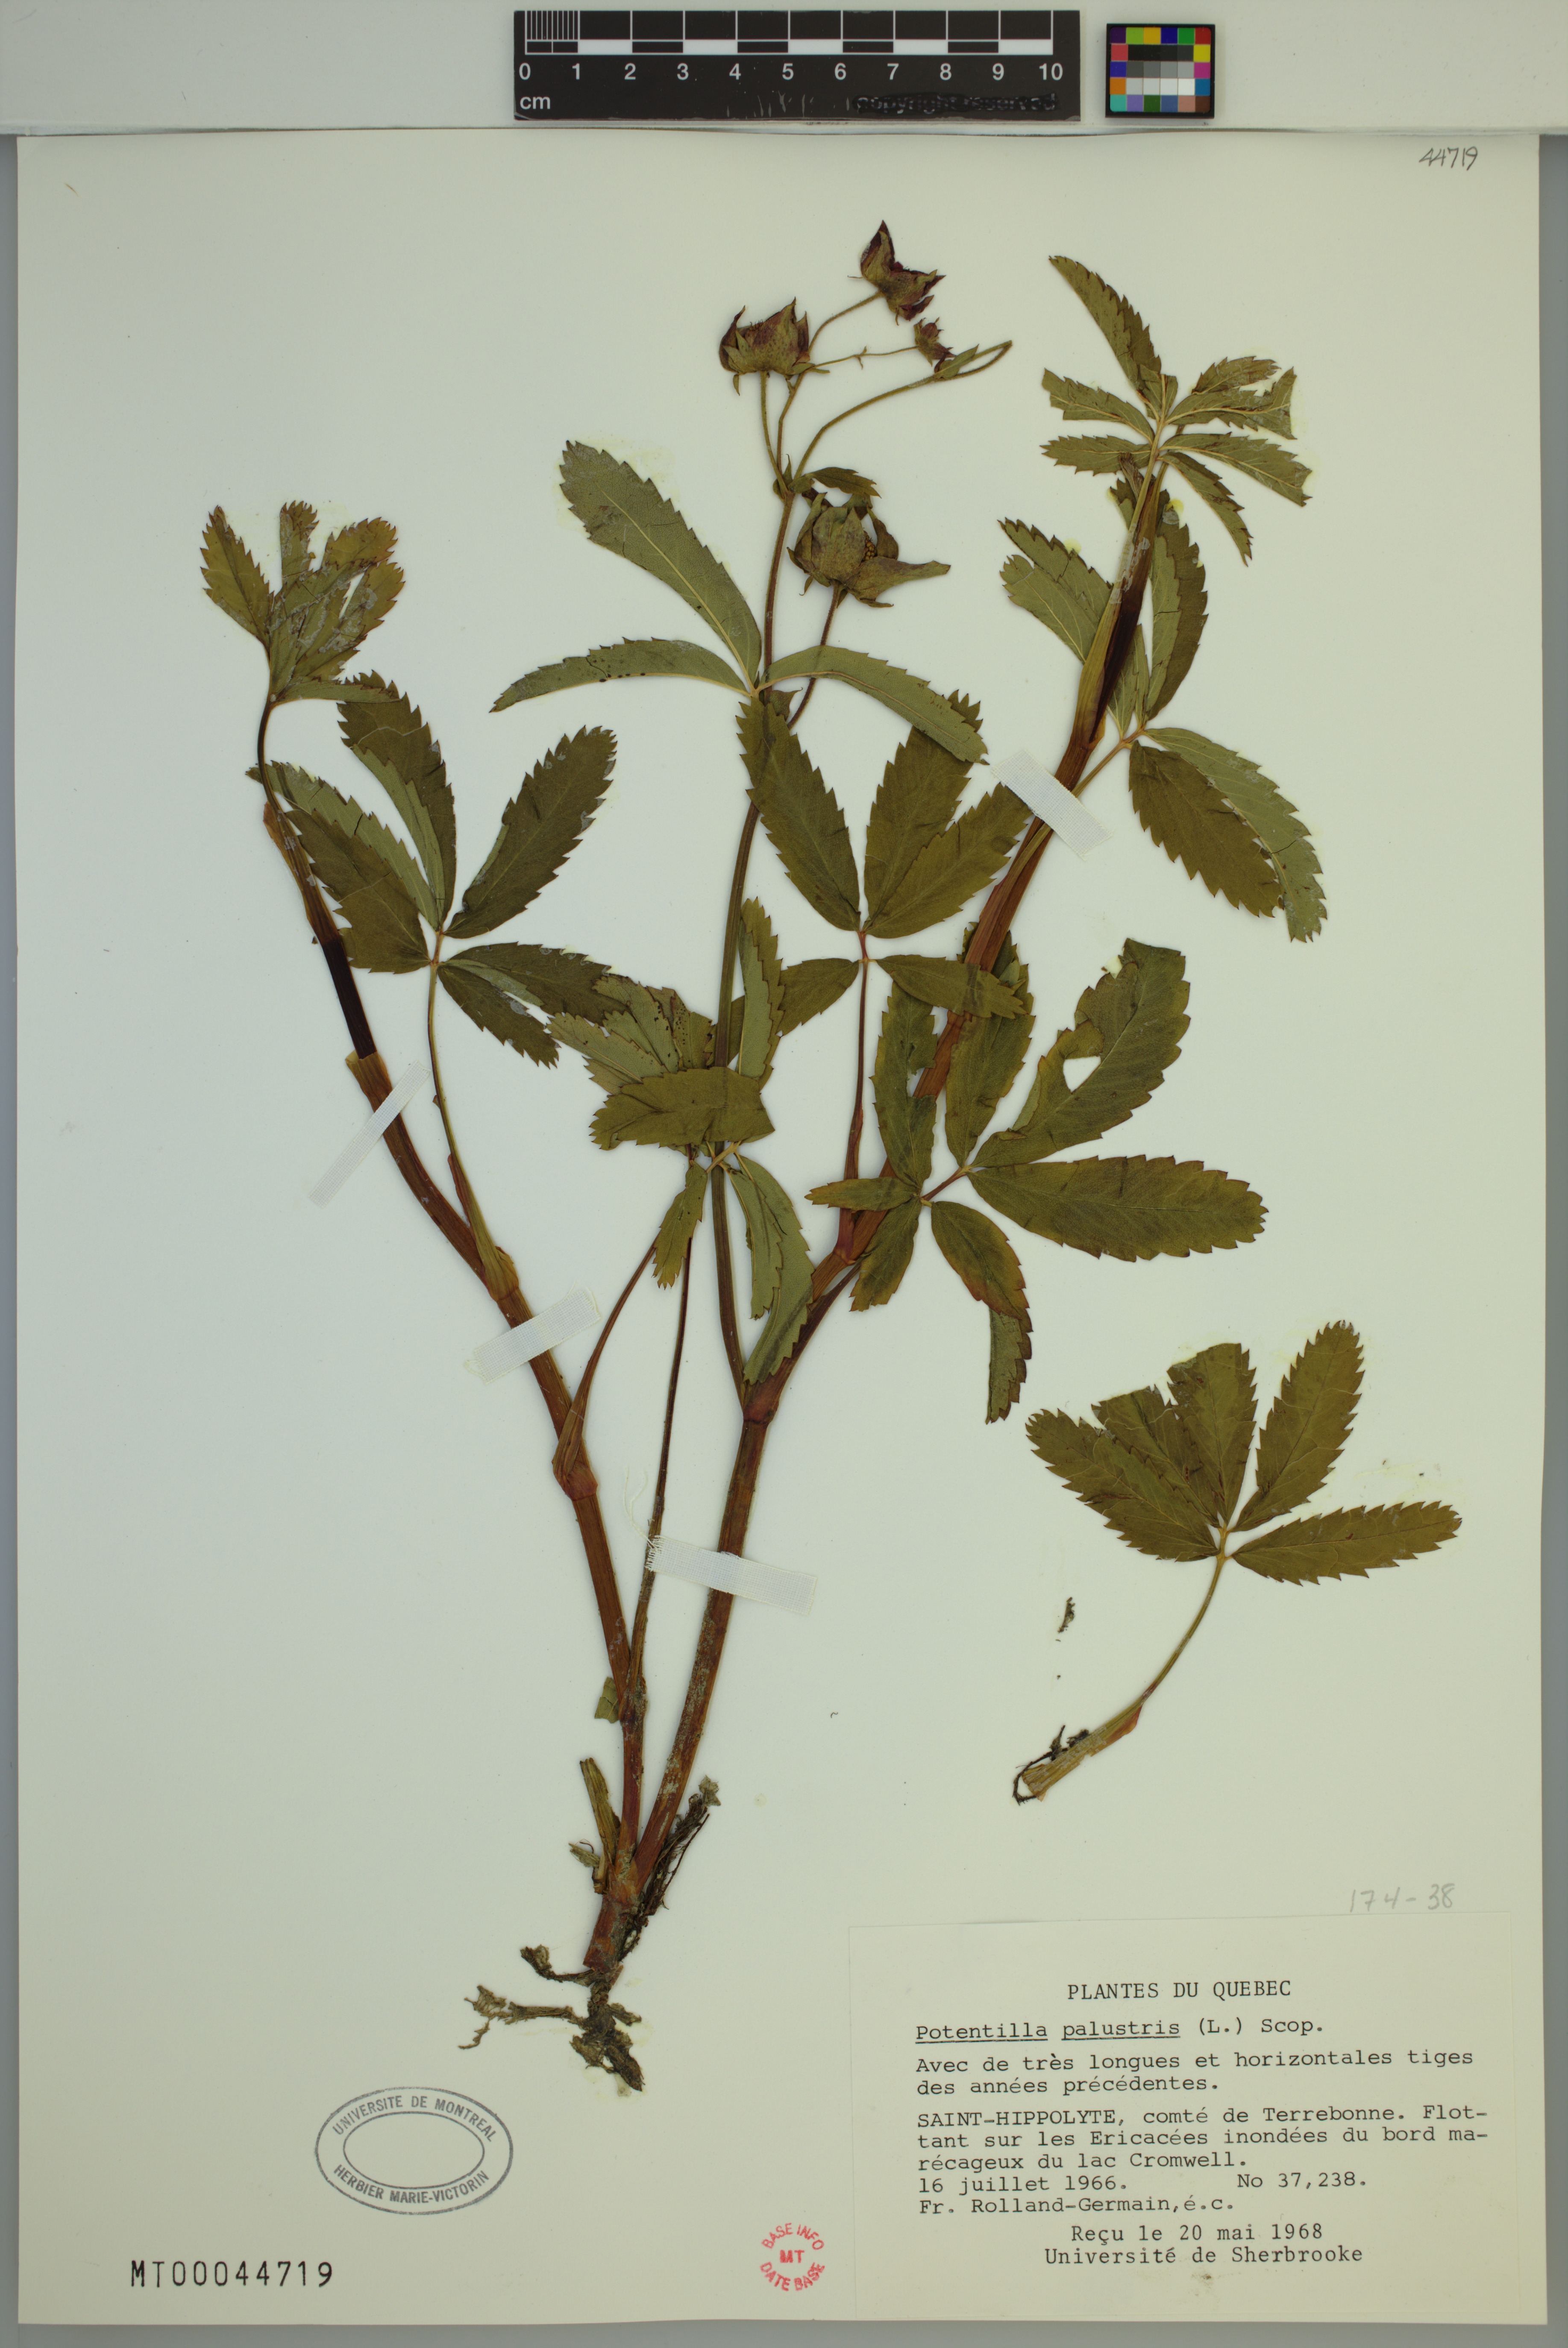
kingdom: Plantae
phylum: Tracheophyta
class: Magnoliopsida
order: Rosales
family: Rosaceae
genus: Comarum
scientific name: Comarum palustre
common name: Marsh cinquefoil
